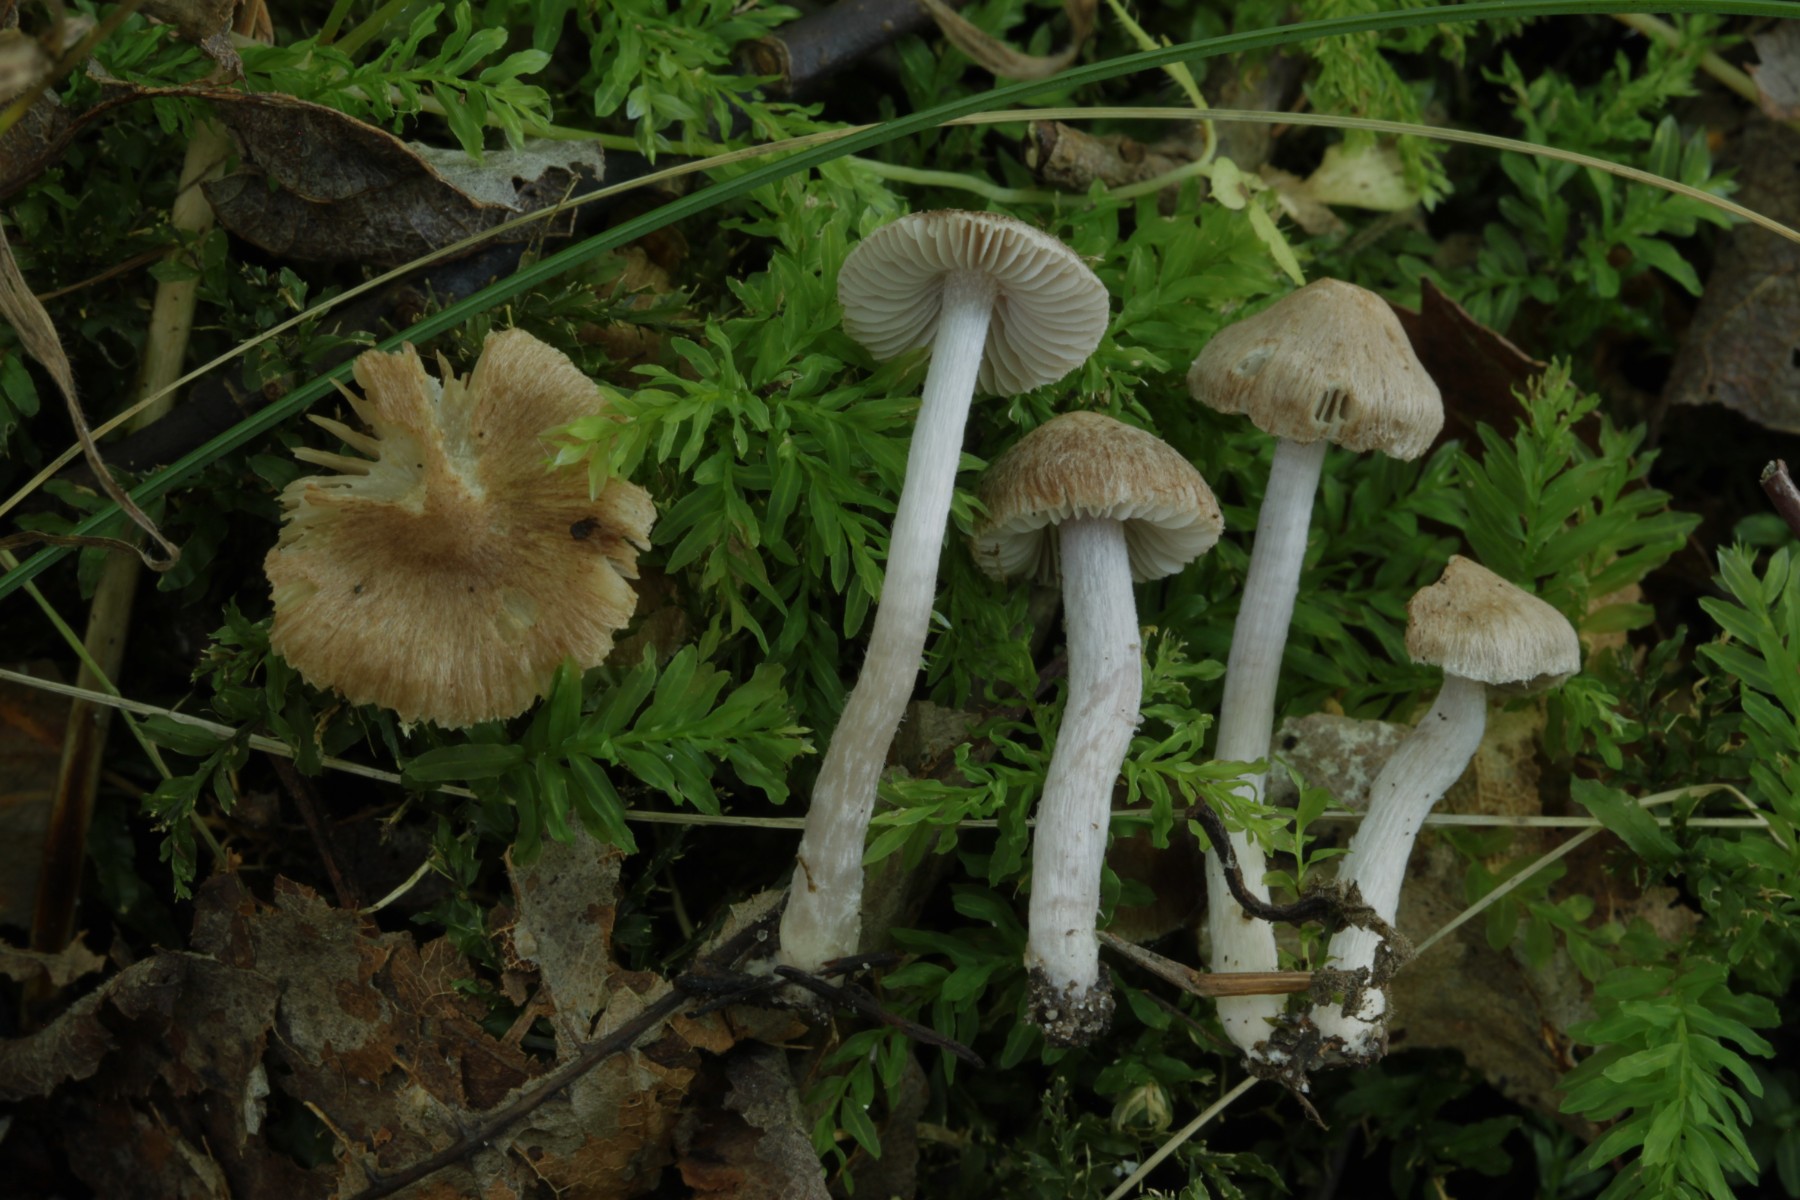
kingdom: Fungi
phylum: Basidiomycota
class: Agaricomycetes
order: Agaricales
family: Inocybaceae
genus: Inocybe
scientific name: Inocybe
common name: trævlhat
